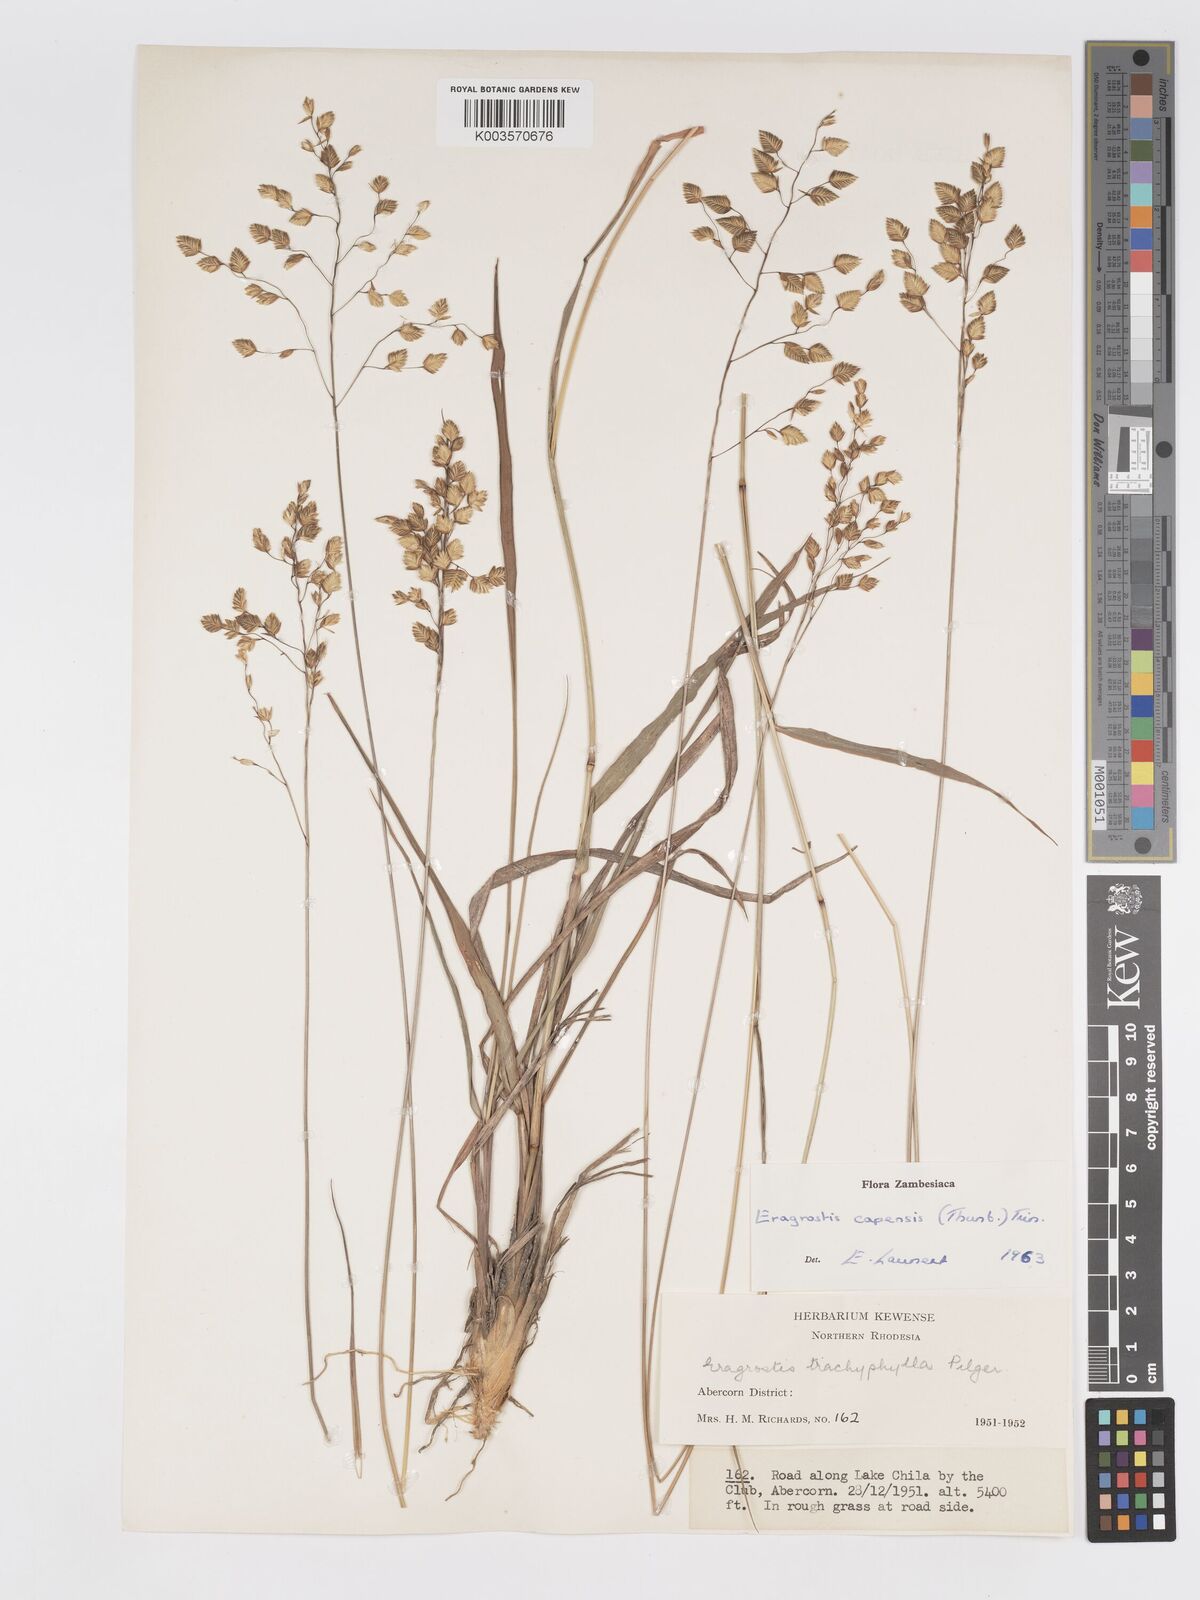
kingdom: Plantae
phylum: Tracheophyta
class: Liliopsida
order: Poales
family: Poaceae
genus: Eragrostis
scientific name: Eragrostis capensis
